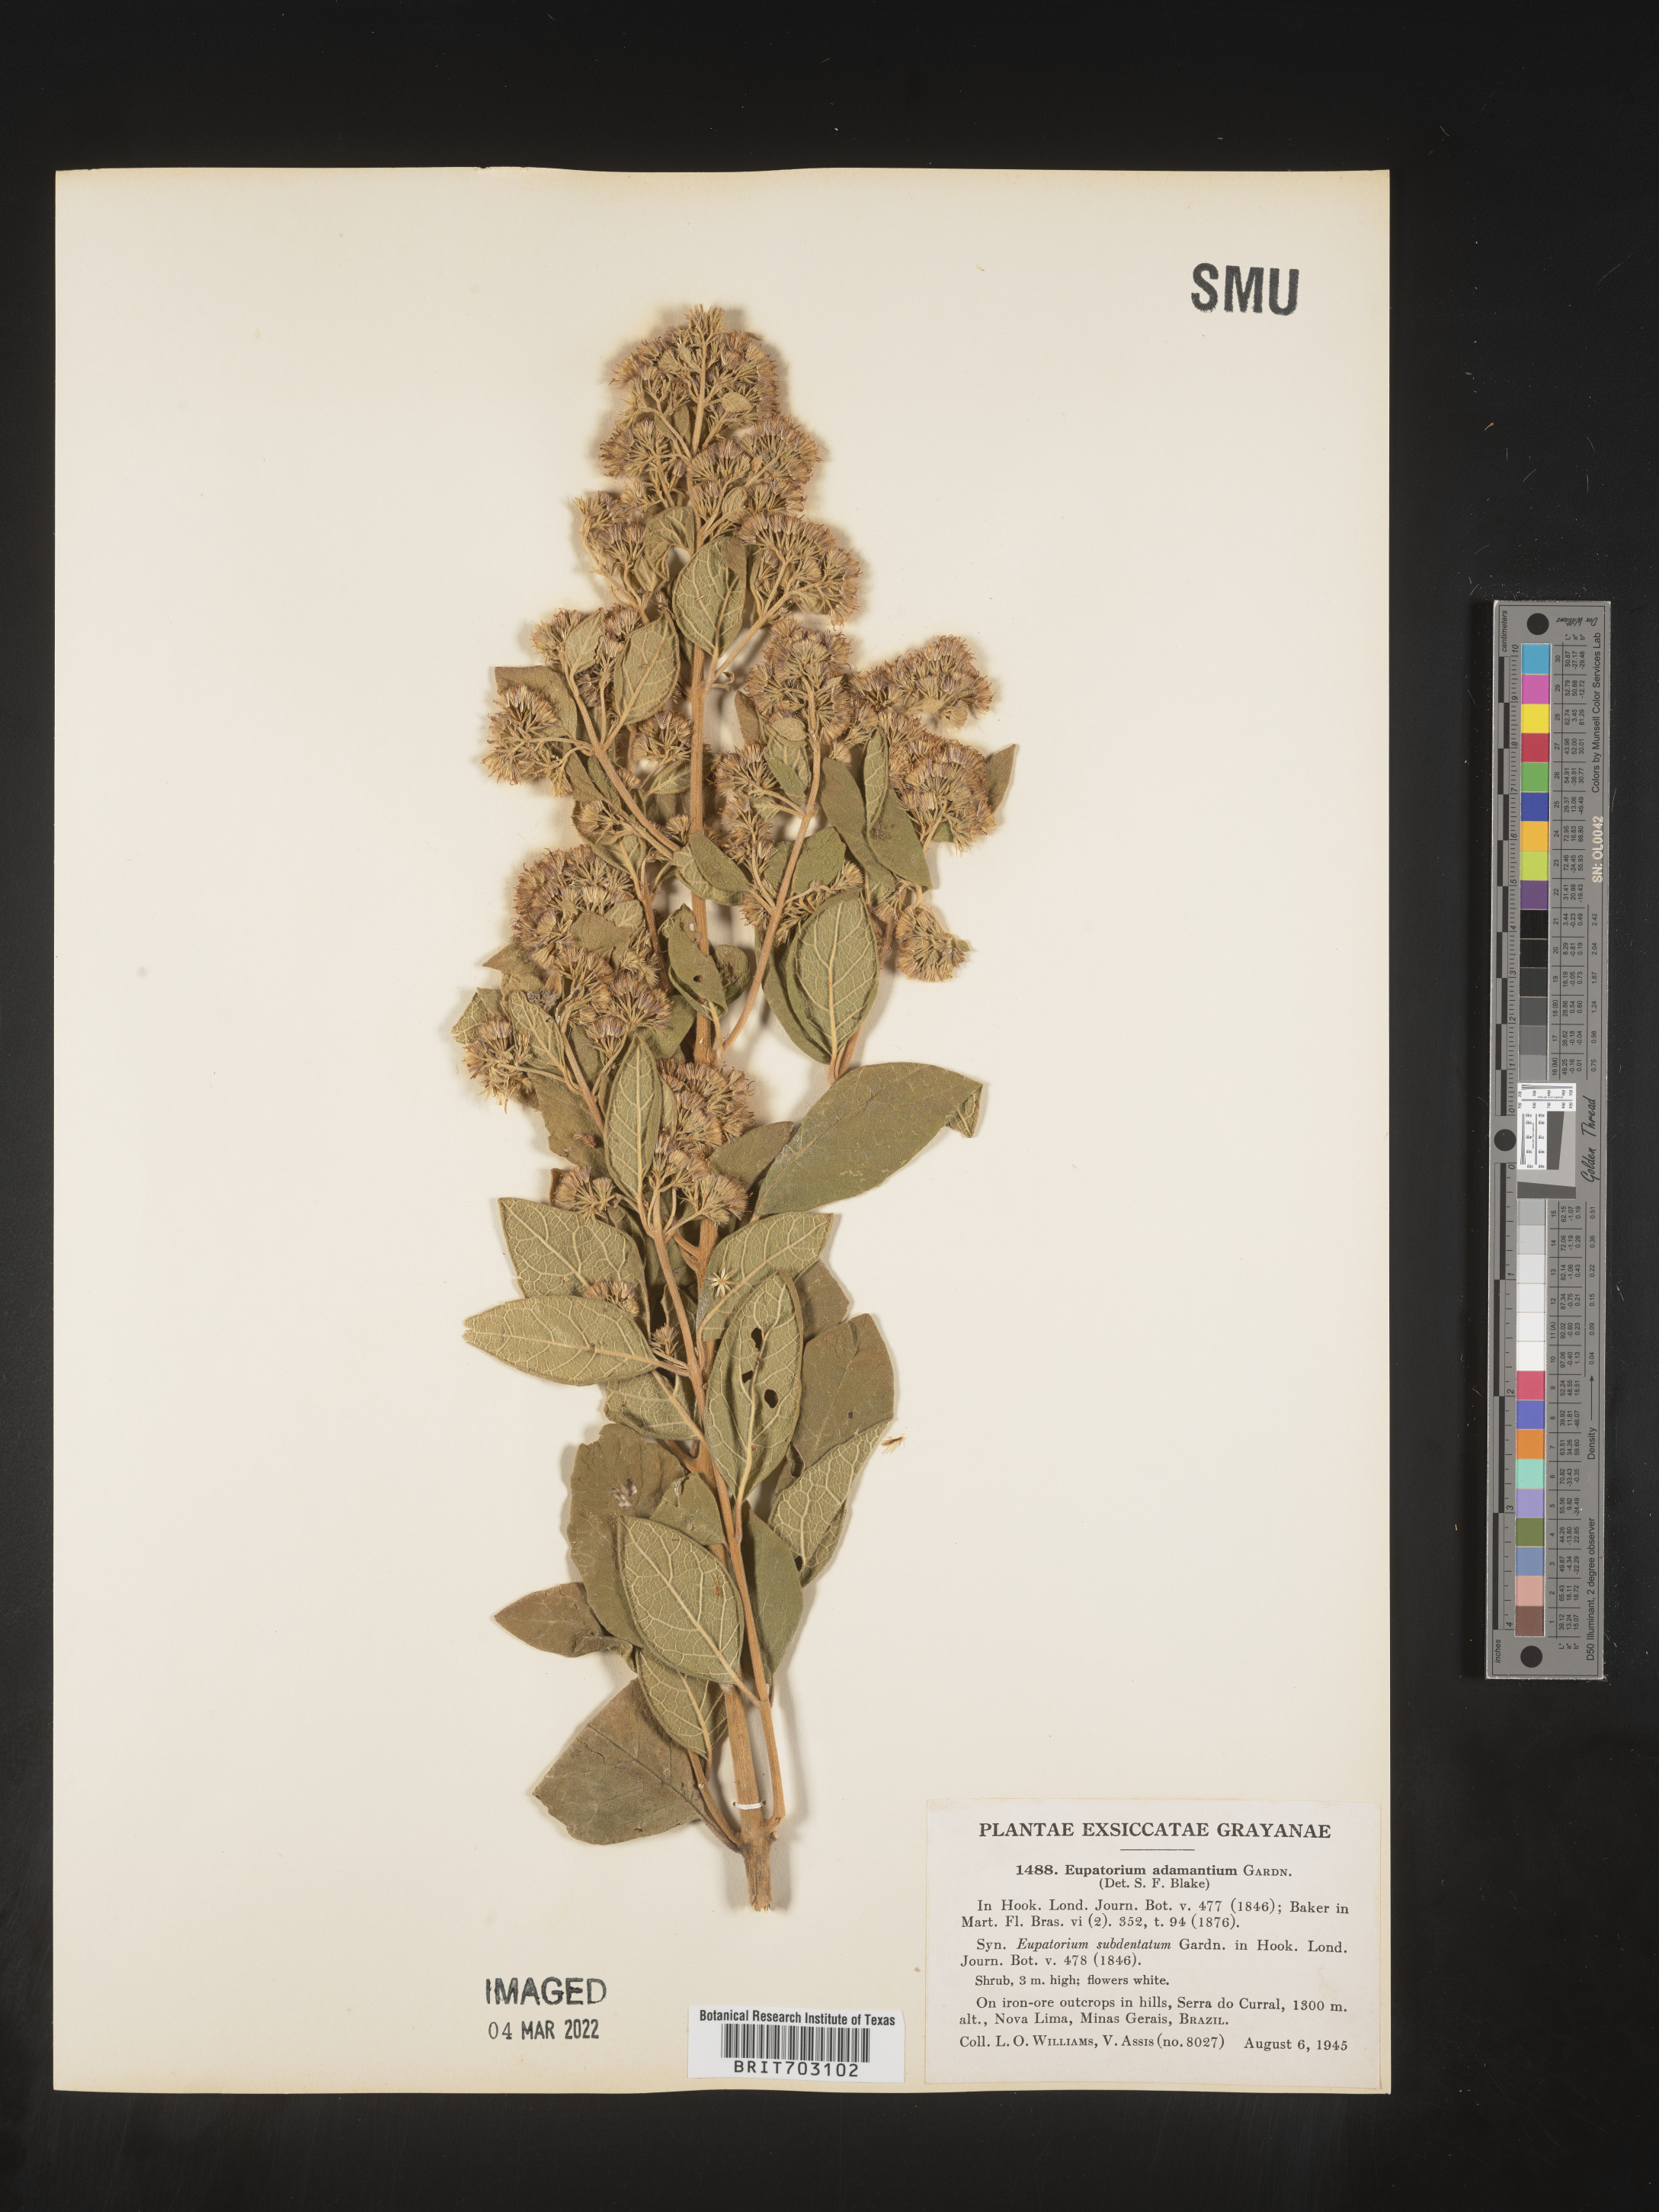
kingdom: Plantae
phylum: Tracheophyta
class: Magnoliopsida
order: Asterales
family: Asteraceae
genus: Eupatorium
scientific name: Eupatorium
